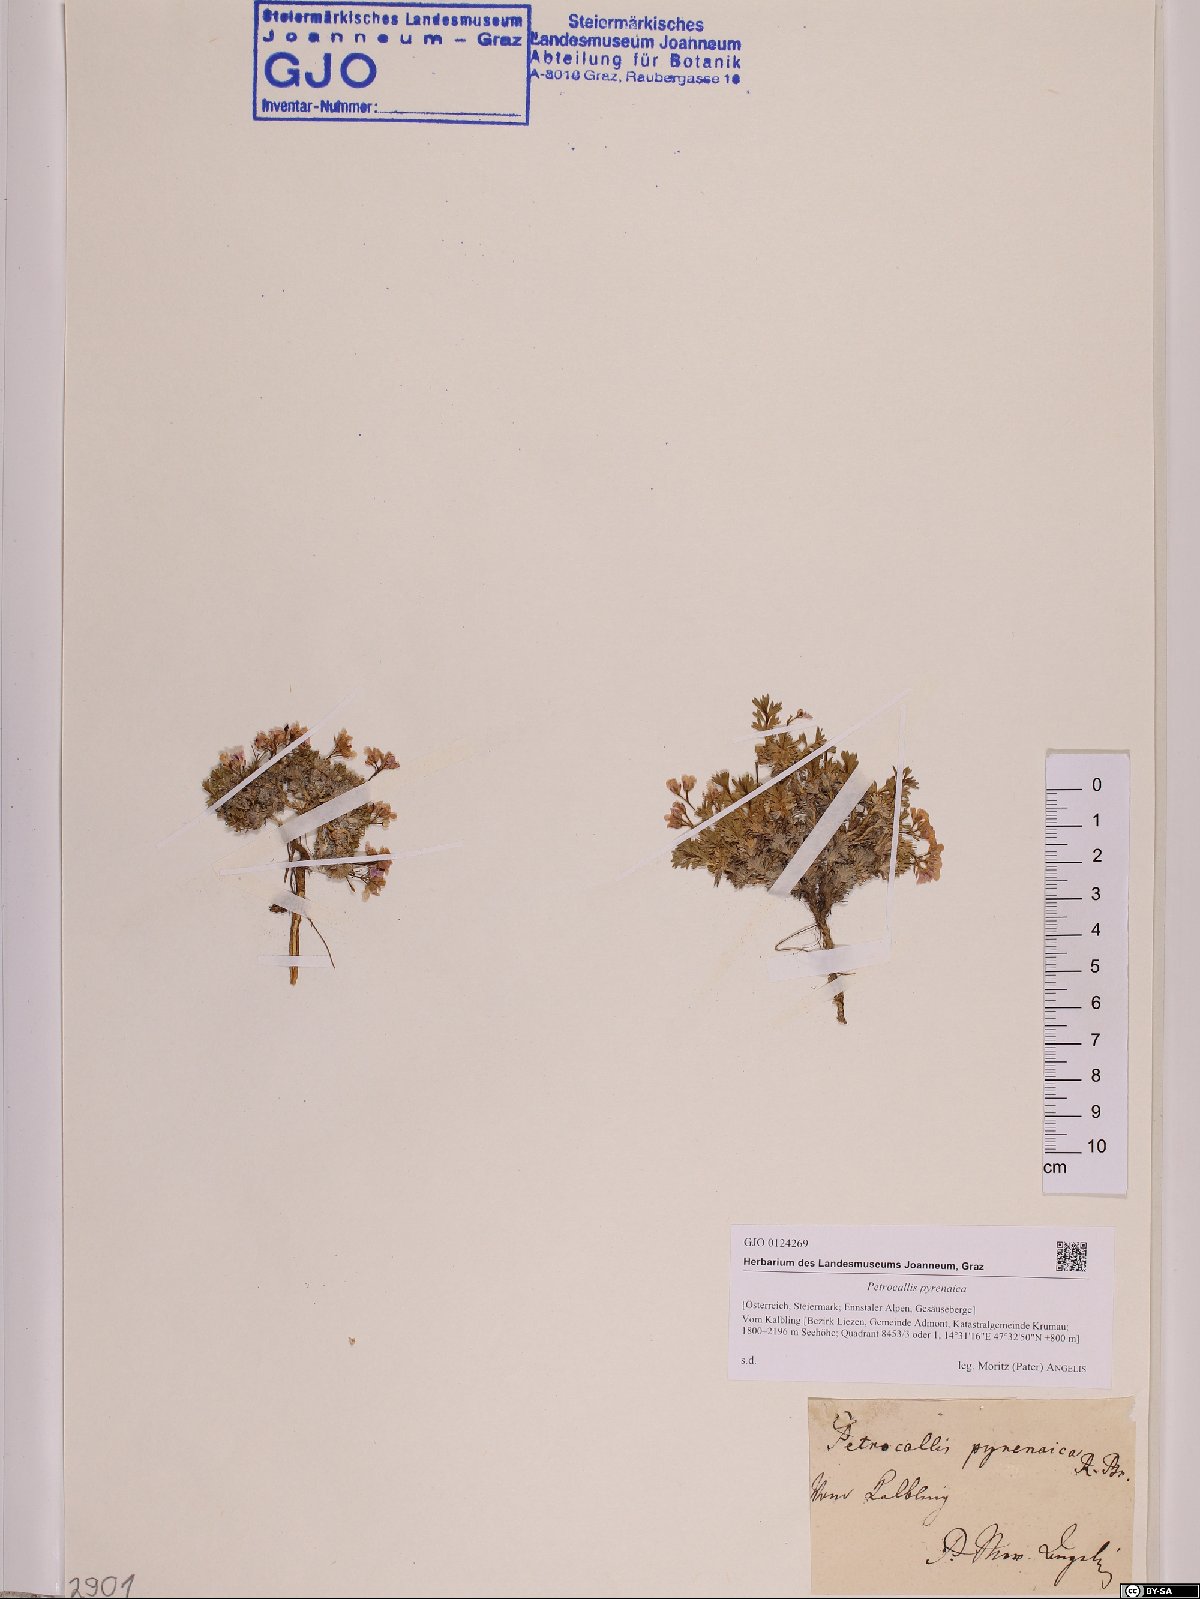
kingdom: Plantae
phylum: Tracheophyta
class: Magnoliopsida
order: Brassicales
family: Brassicaceae
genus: Petrocallis
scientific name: Petrocallis pyrenaica
